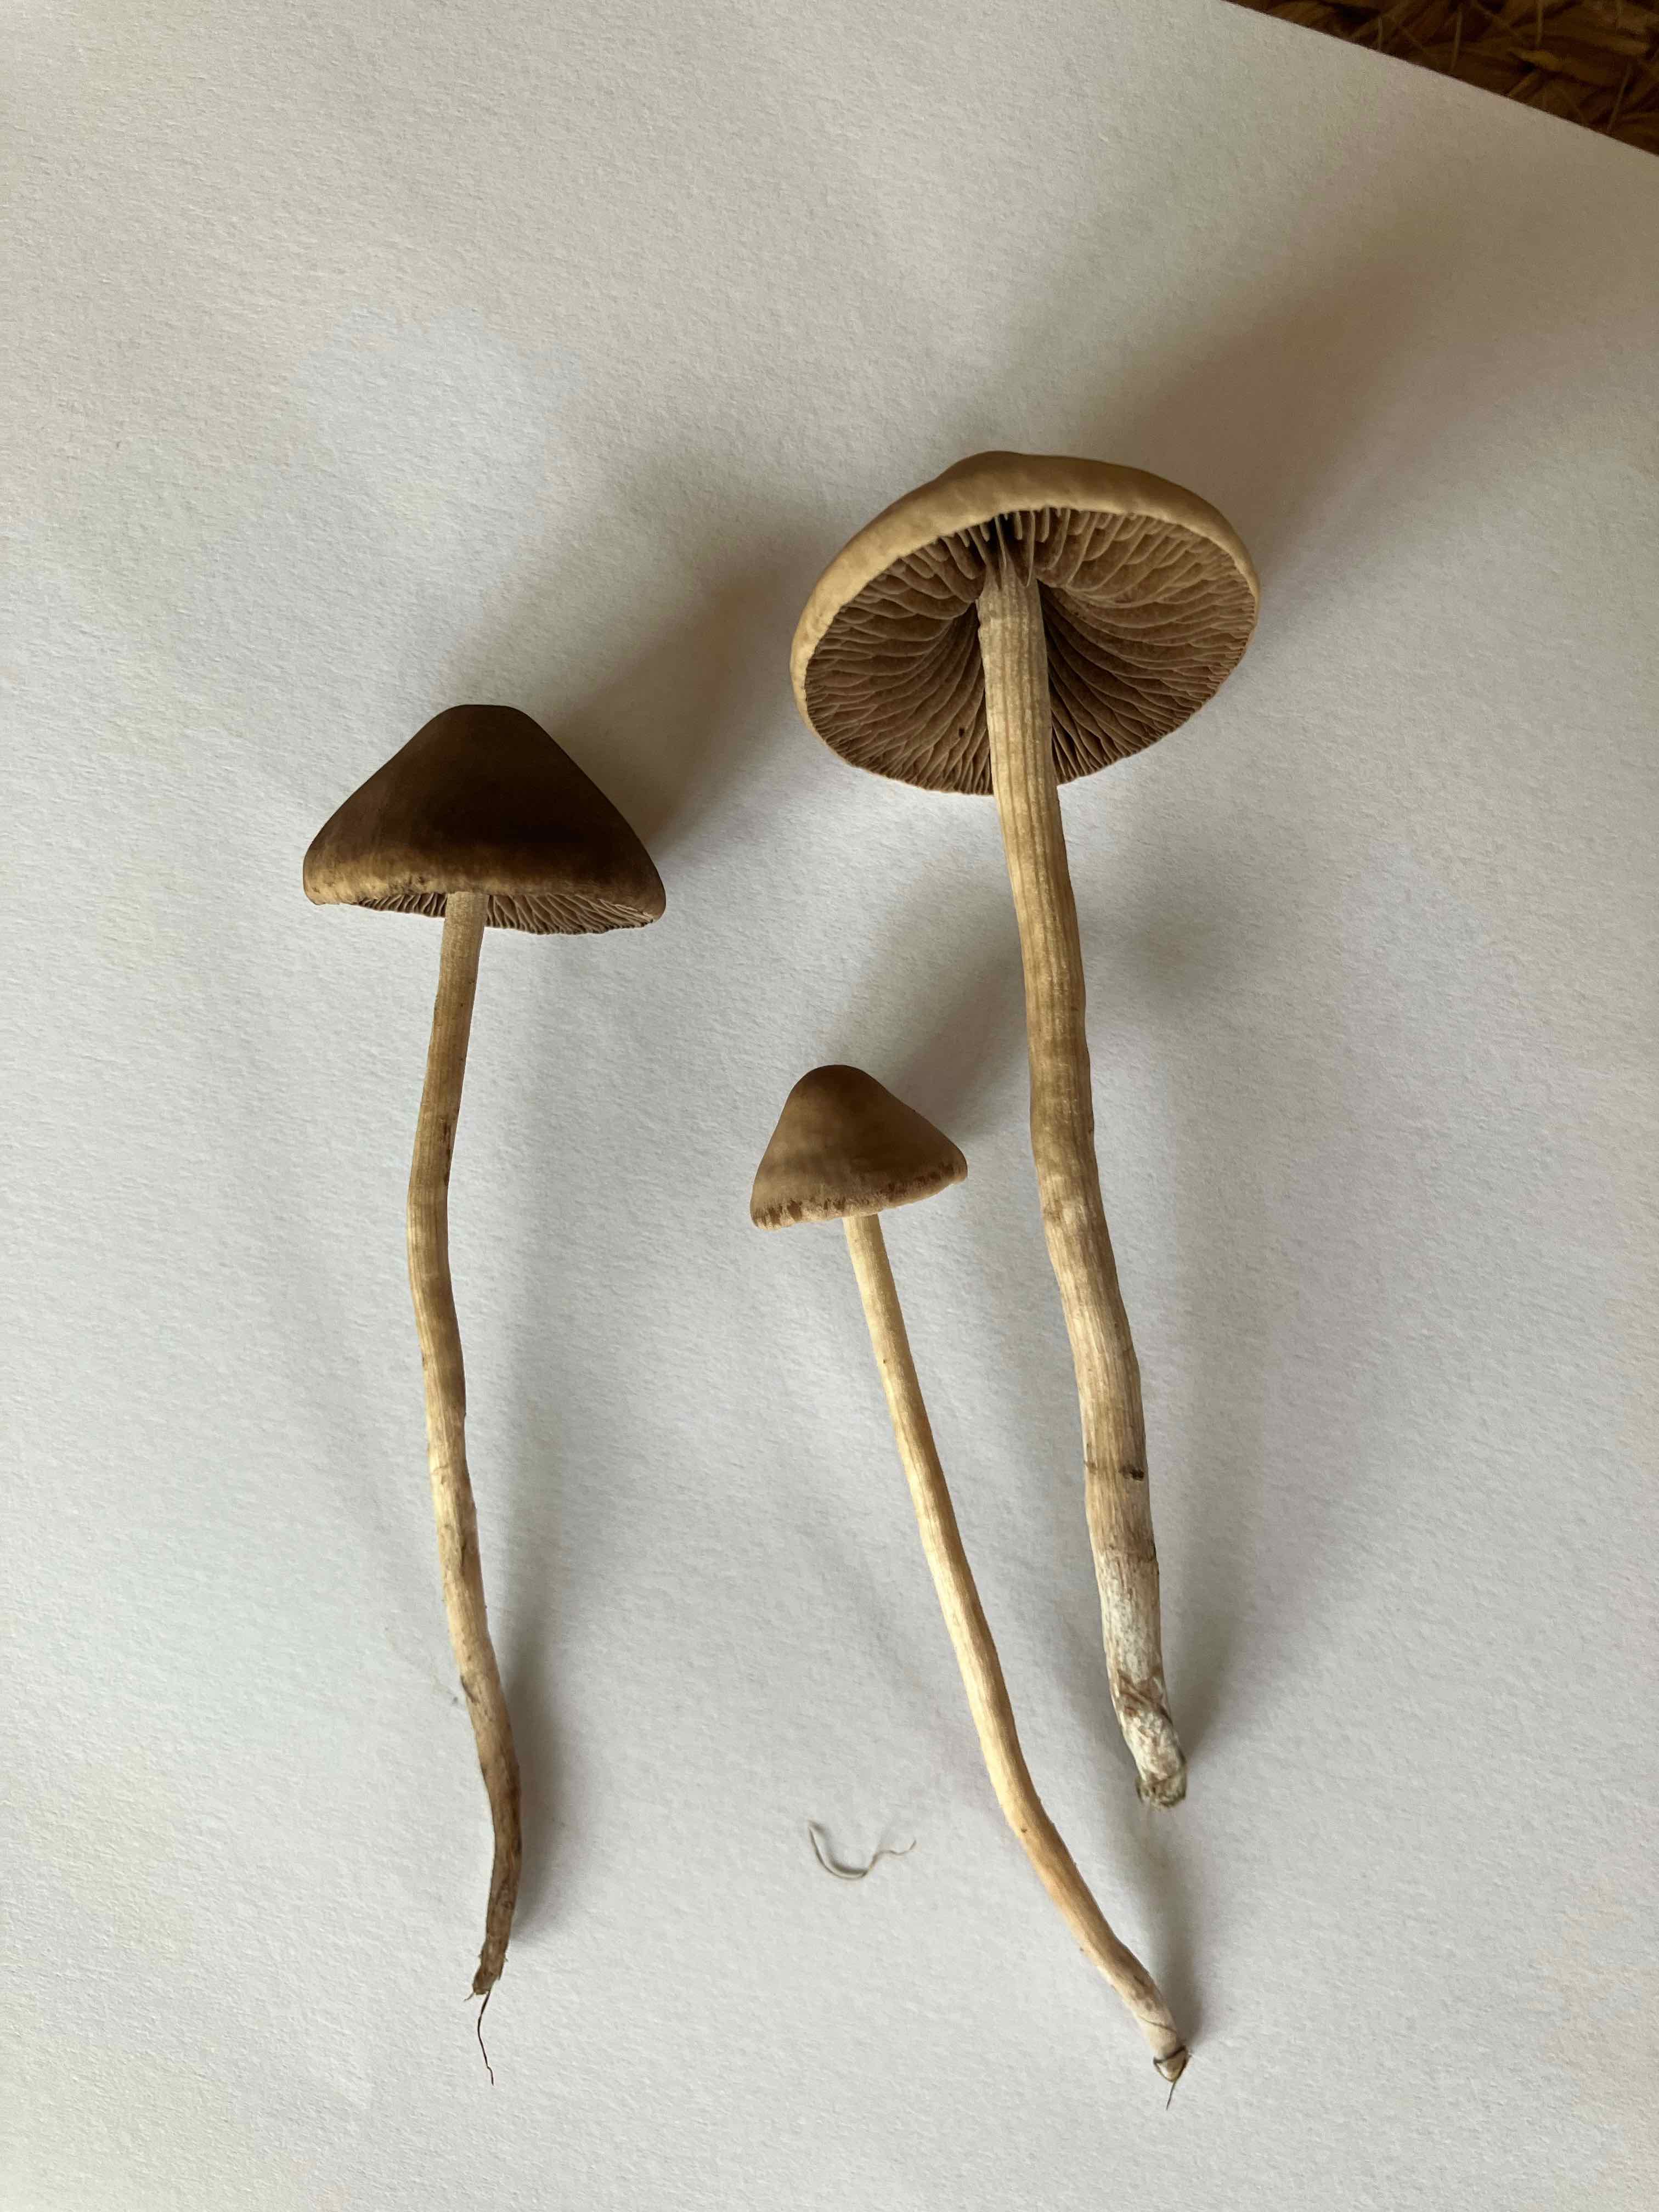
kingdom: Fungi
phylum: Basidiomycota
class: Agaricomycetes
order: Agaricales
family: Bolbitiaceae
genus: Panaeolina
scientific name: Panaeolina foenisecii
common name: høslætsvamp
